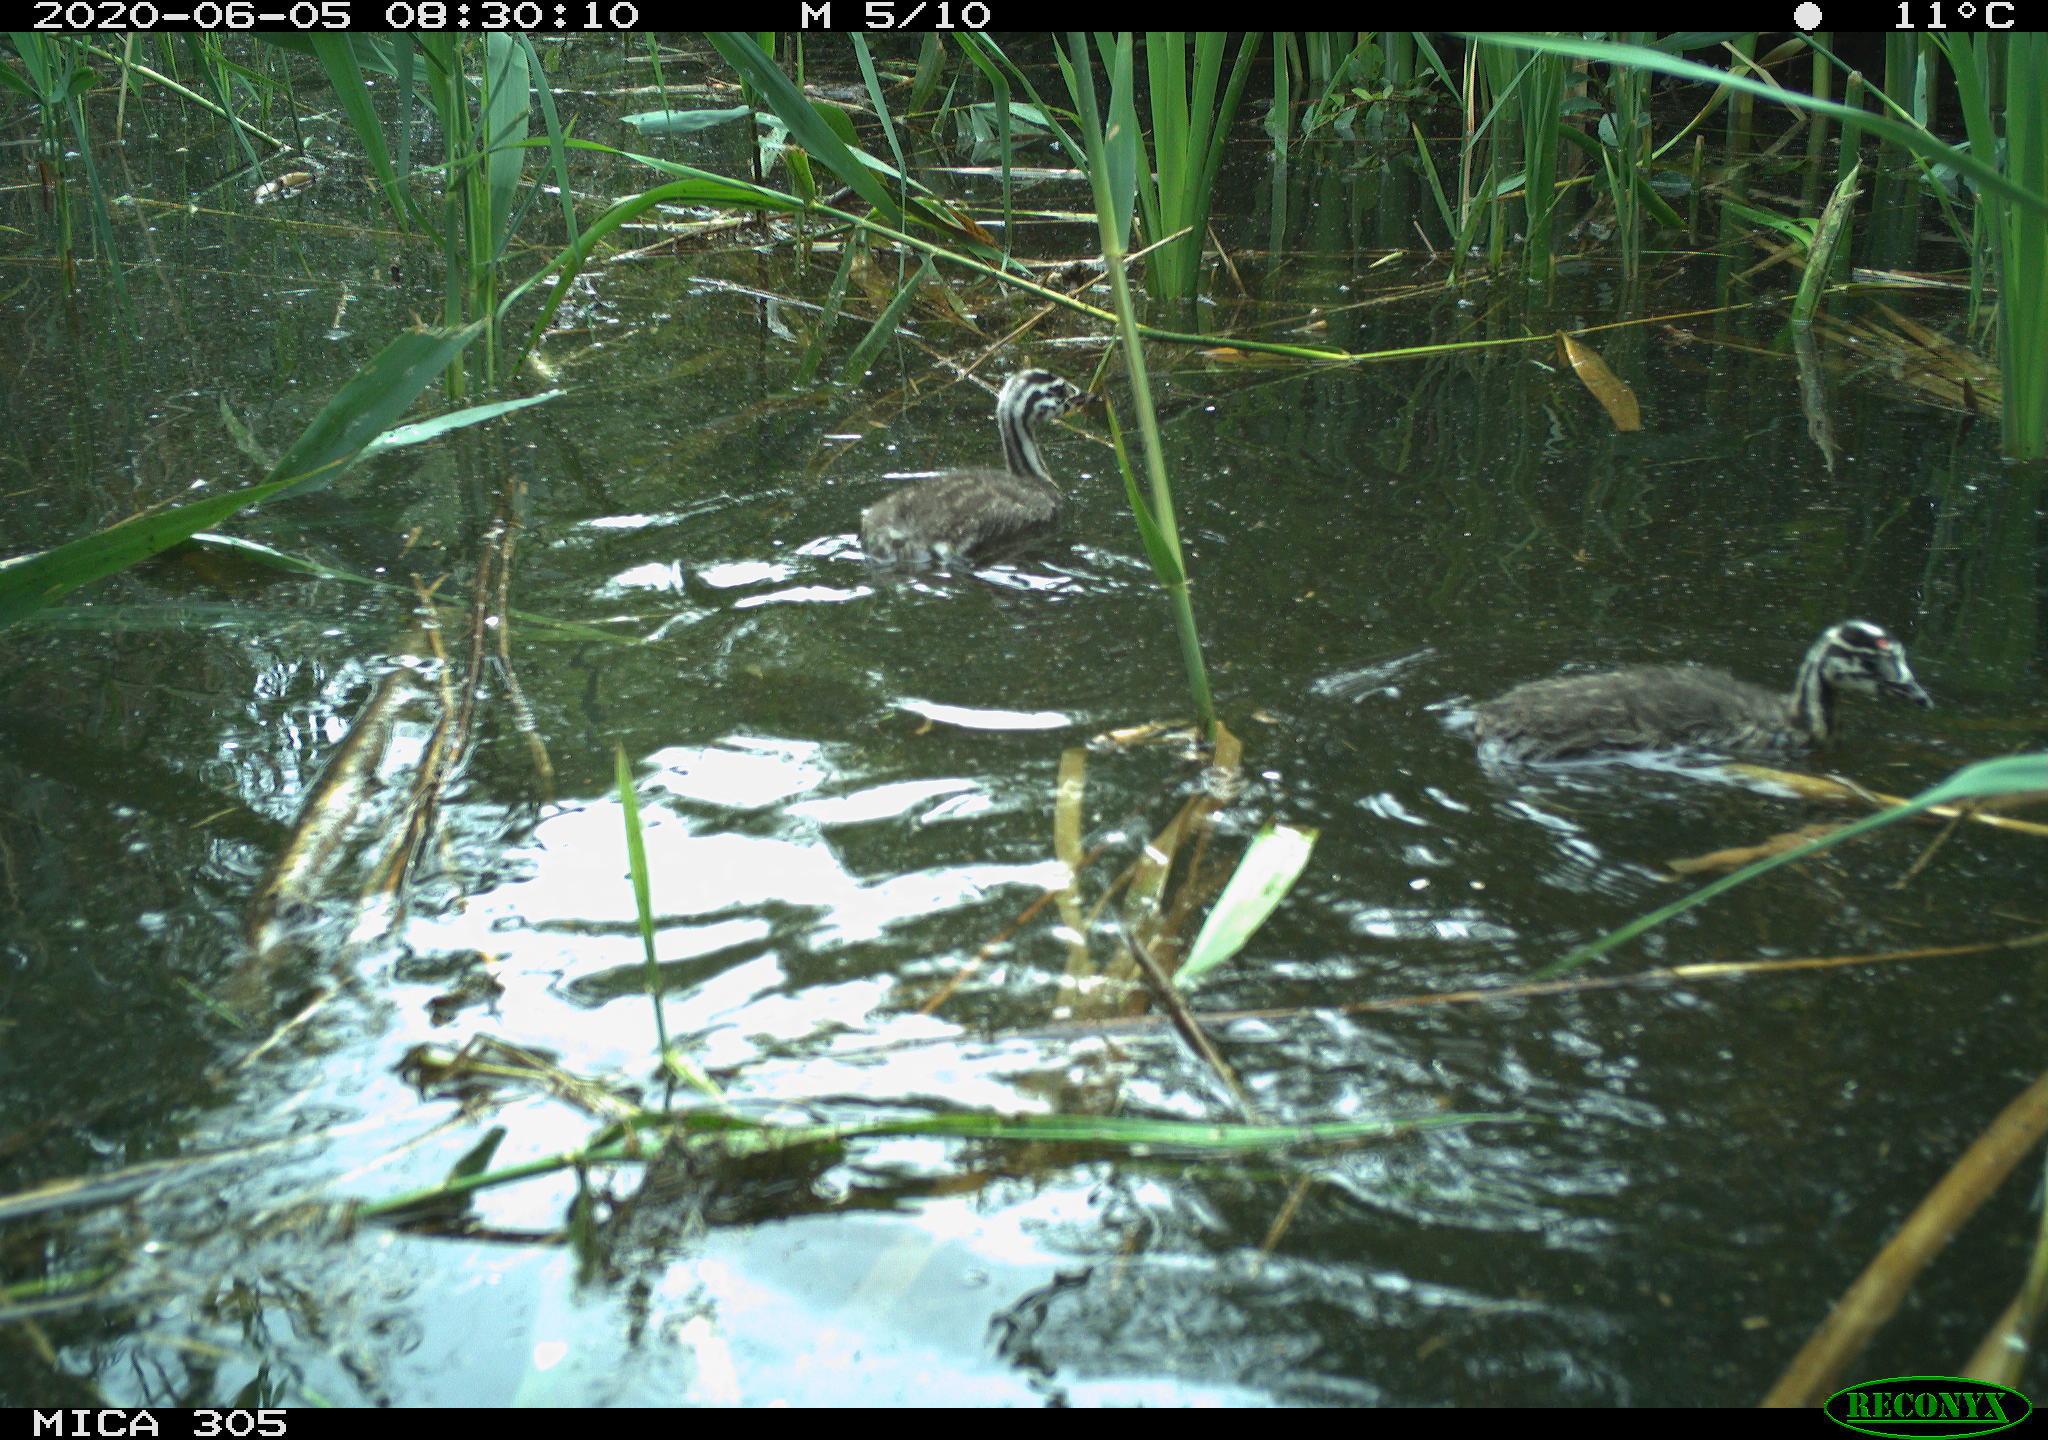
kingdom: Animalia
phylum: Chordata
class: Aves
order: Podicipediformes
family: Podicipedidae
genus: Podiceps
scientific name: Podiceps cristatus
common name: Great crested grebe
